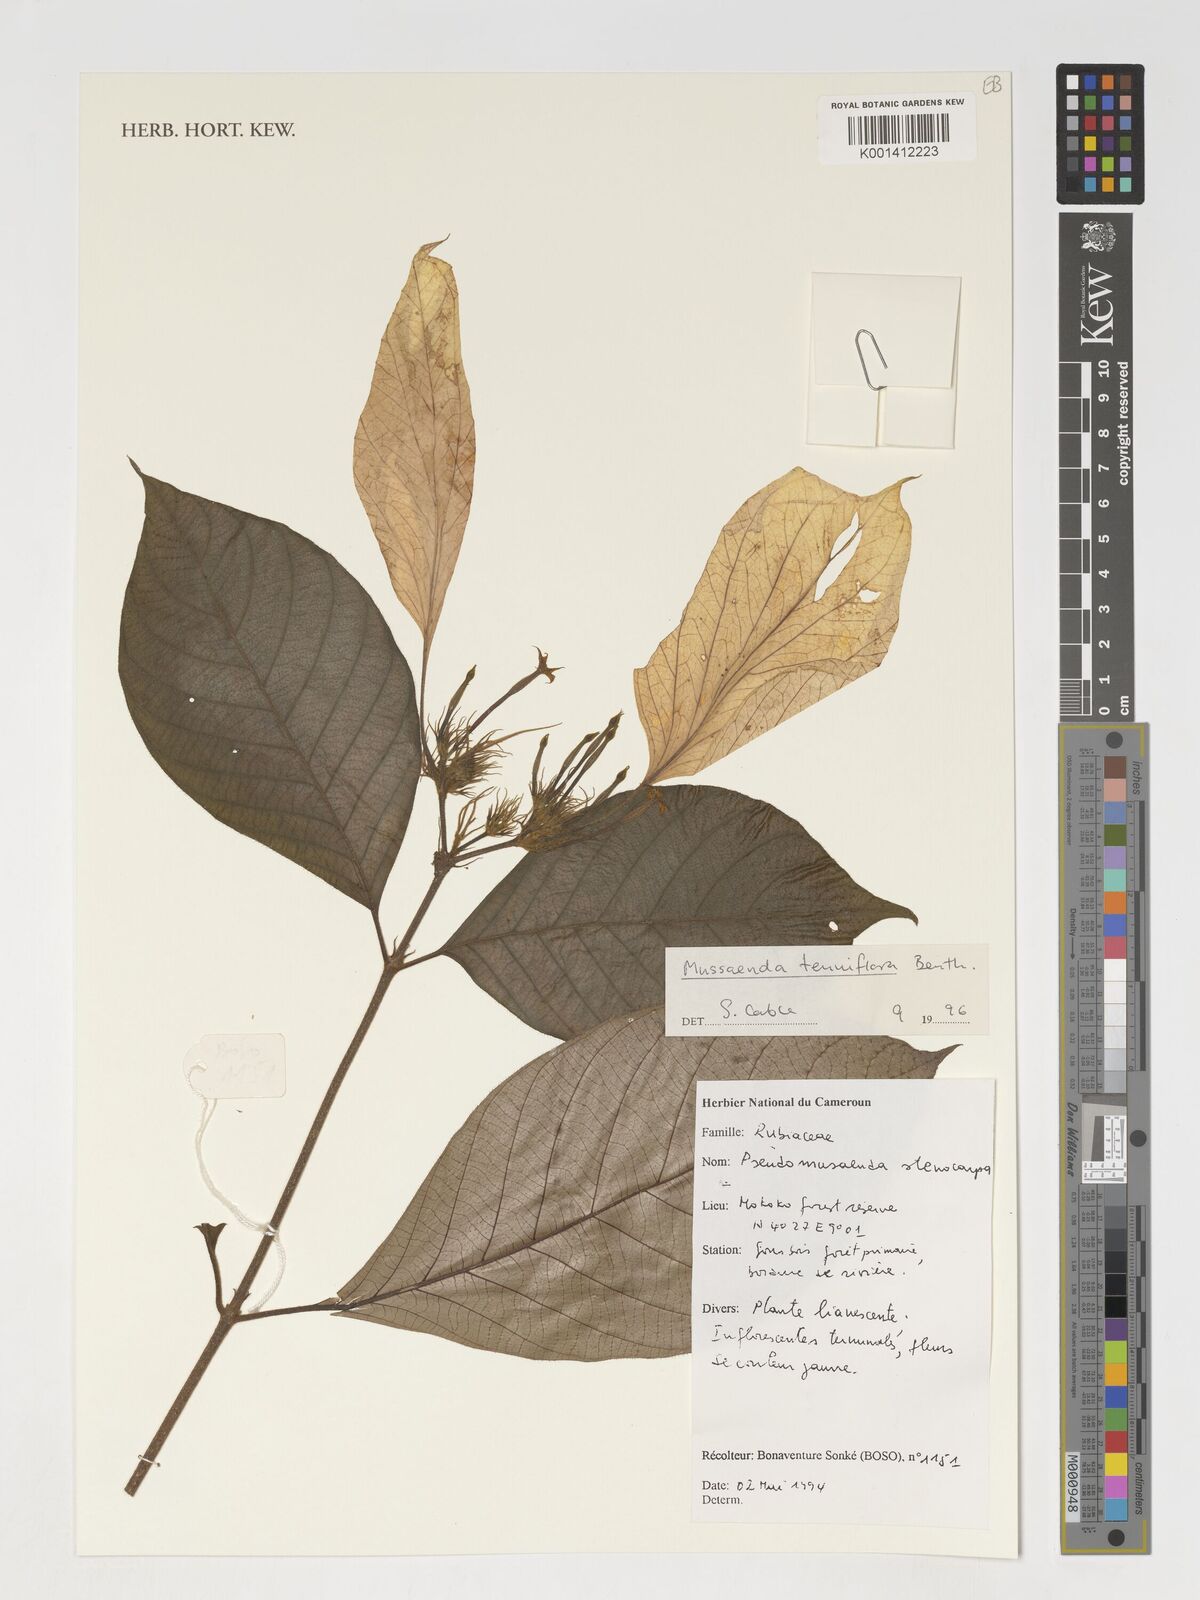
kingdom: Plantae
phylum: Tracheophyta
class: Magnoliopsida
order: Gentianales
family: Rubiaceae
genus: Mussaenda
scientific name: Mussaenda tenuiflora
